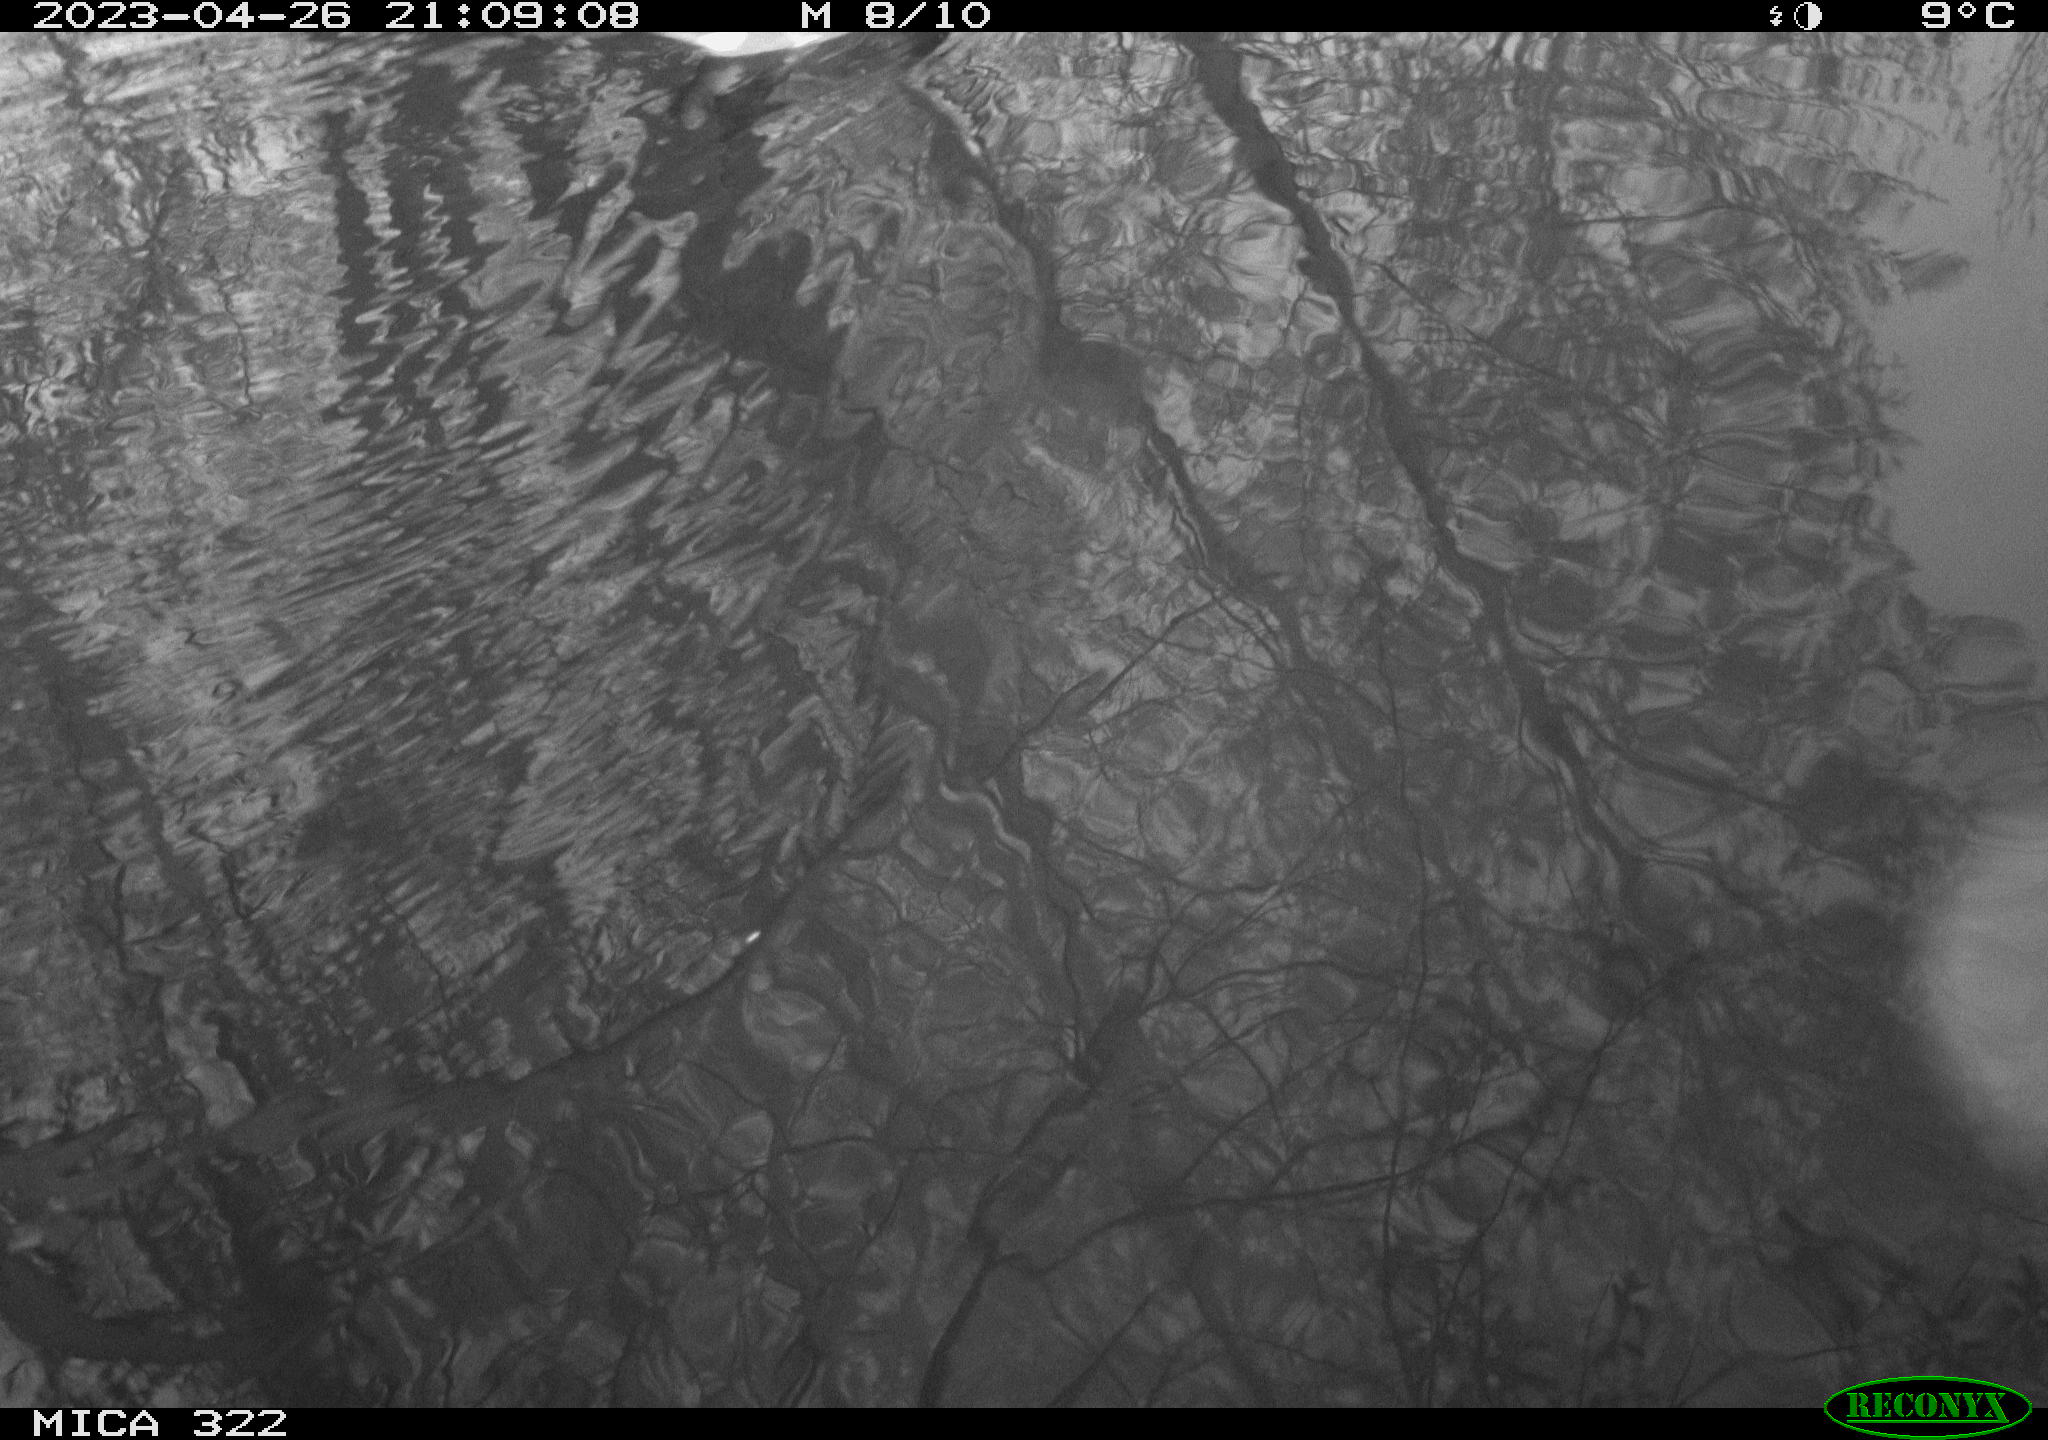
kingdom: Animalia
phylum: Chordata
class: Aves
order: Gruiformes
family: Rallidae
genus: Gallinula
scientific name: Gallinula chloropus
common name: Common moorhen
